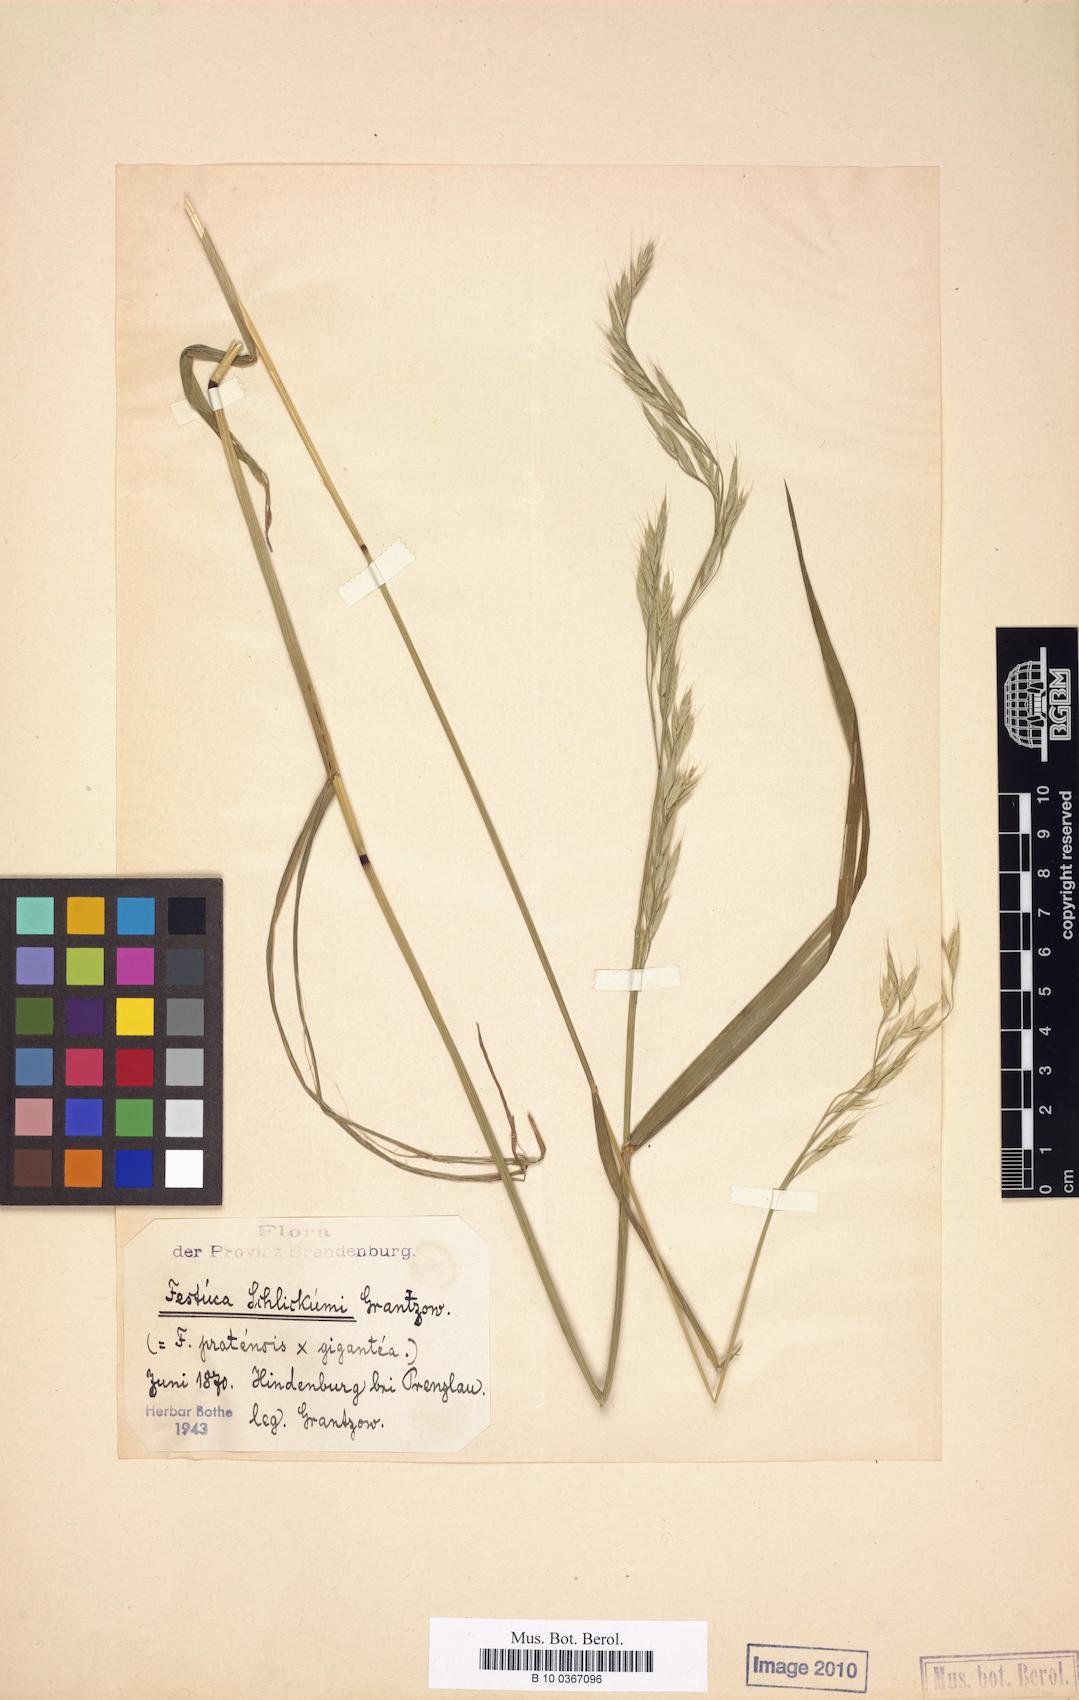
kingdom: Plantae
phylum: Tracheophyta
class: Liliopsida
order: Poales
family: Poaceae
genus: Lolium
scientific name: Lolium schlickumii
